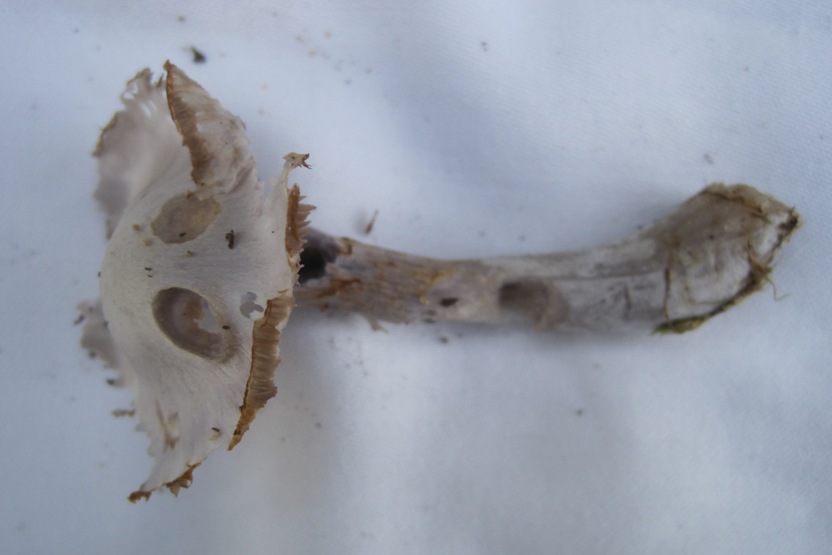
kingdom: Fungi
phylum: Basidiomycota
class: Agaricomycetes
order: Agaricales
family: Cortinariaceae
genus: Cortinarius
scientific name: Cortinarius alboviolaceus
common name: lysviolet slørhat
